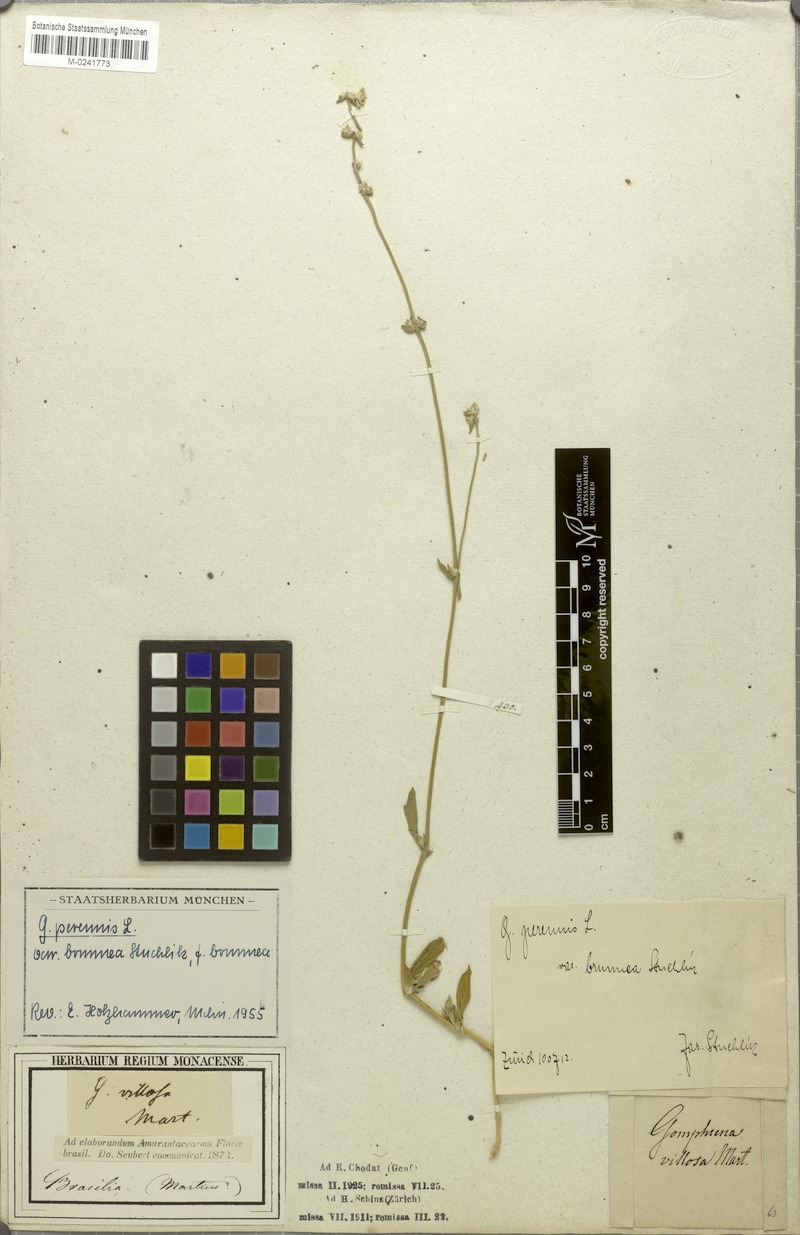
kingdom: Plantae
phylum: Tracheophyta
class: Magnoliopsida
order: Caryophyllales
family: Amaranthaceae
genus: Gomphrena
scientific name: Gomphrena perennis
